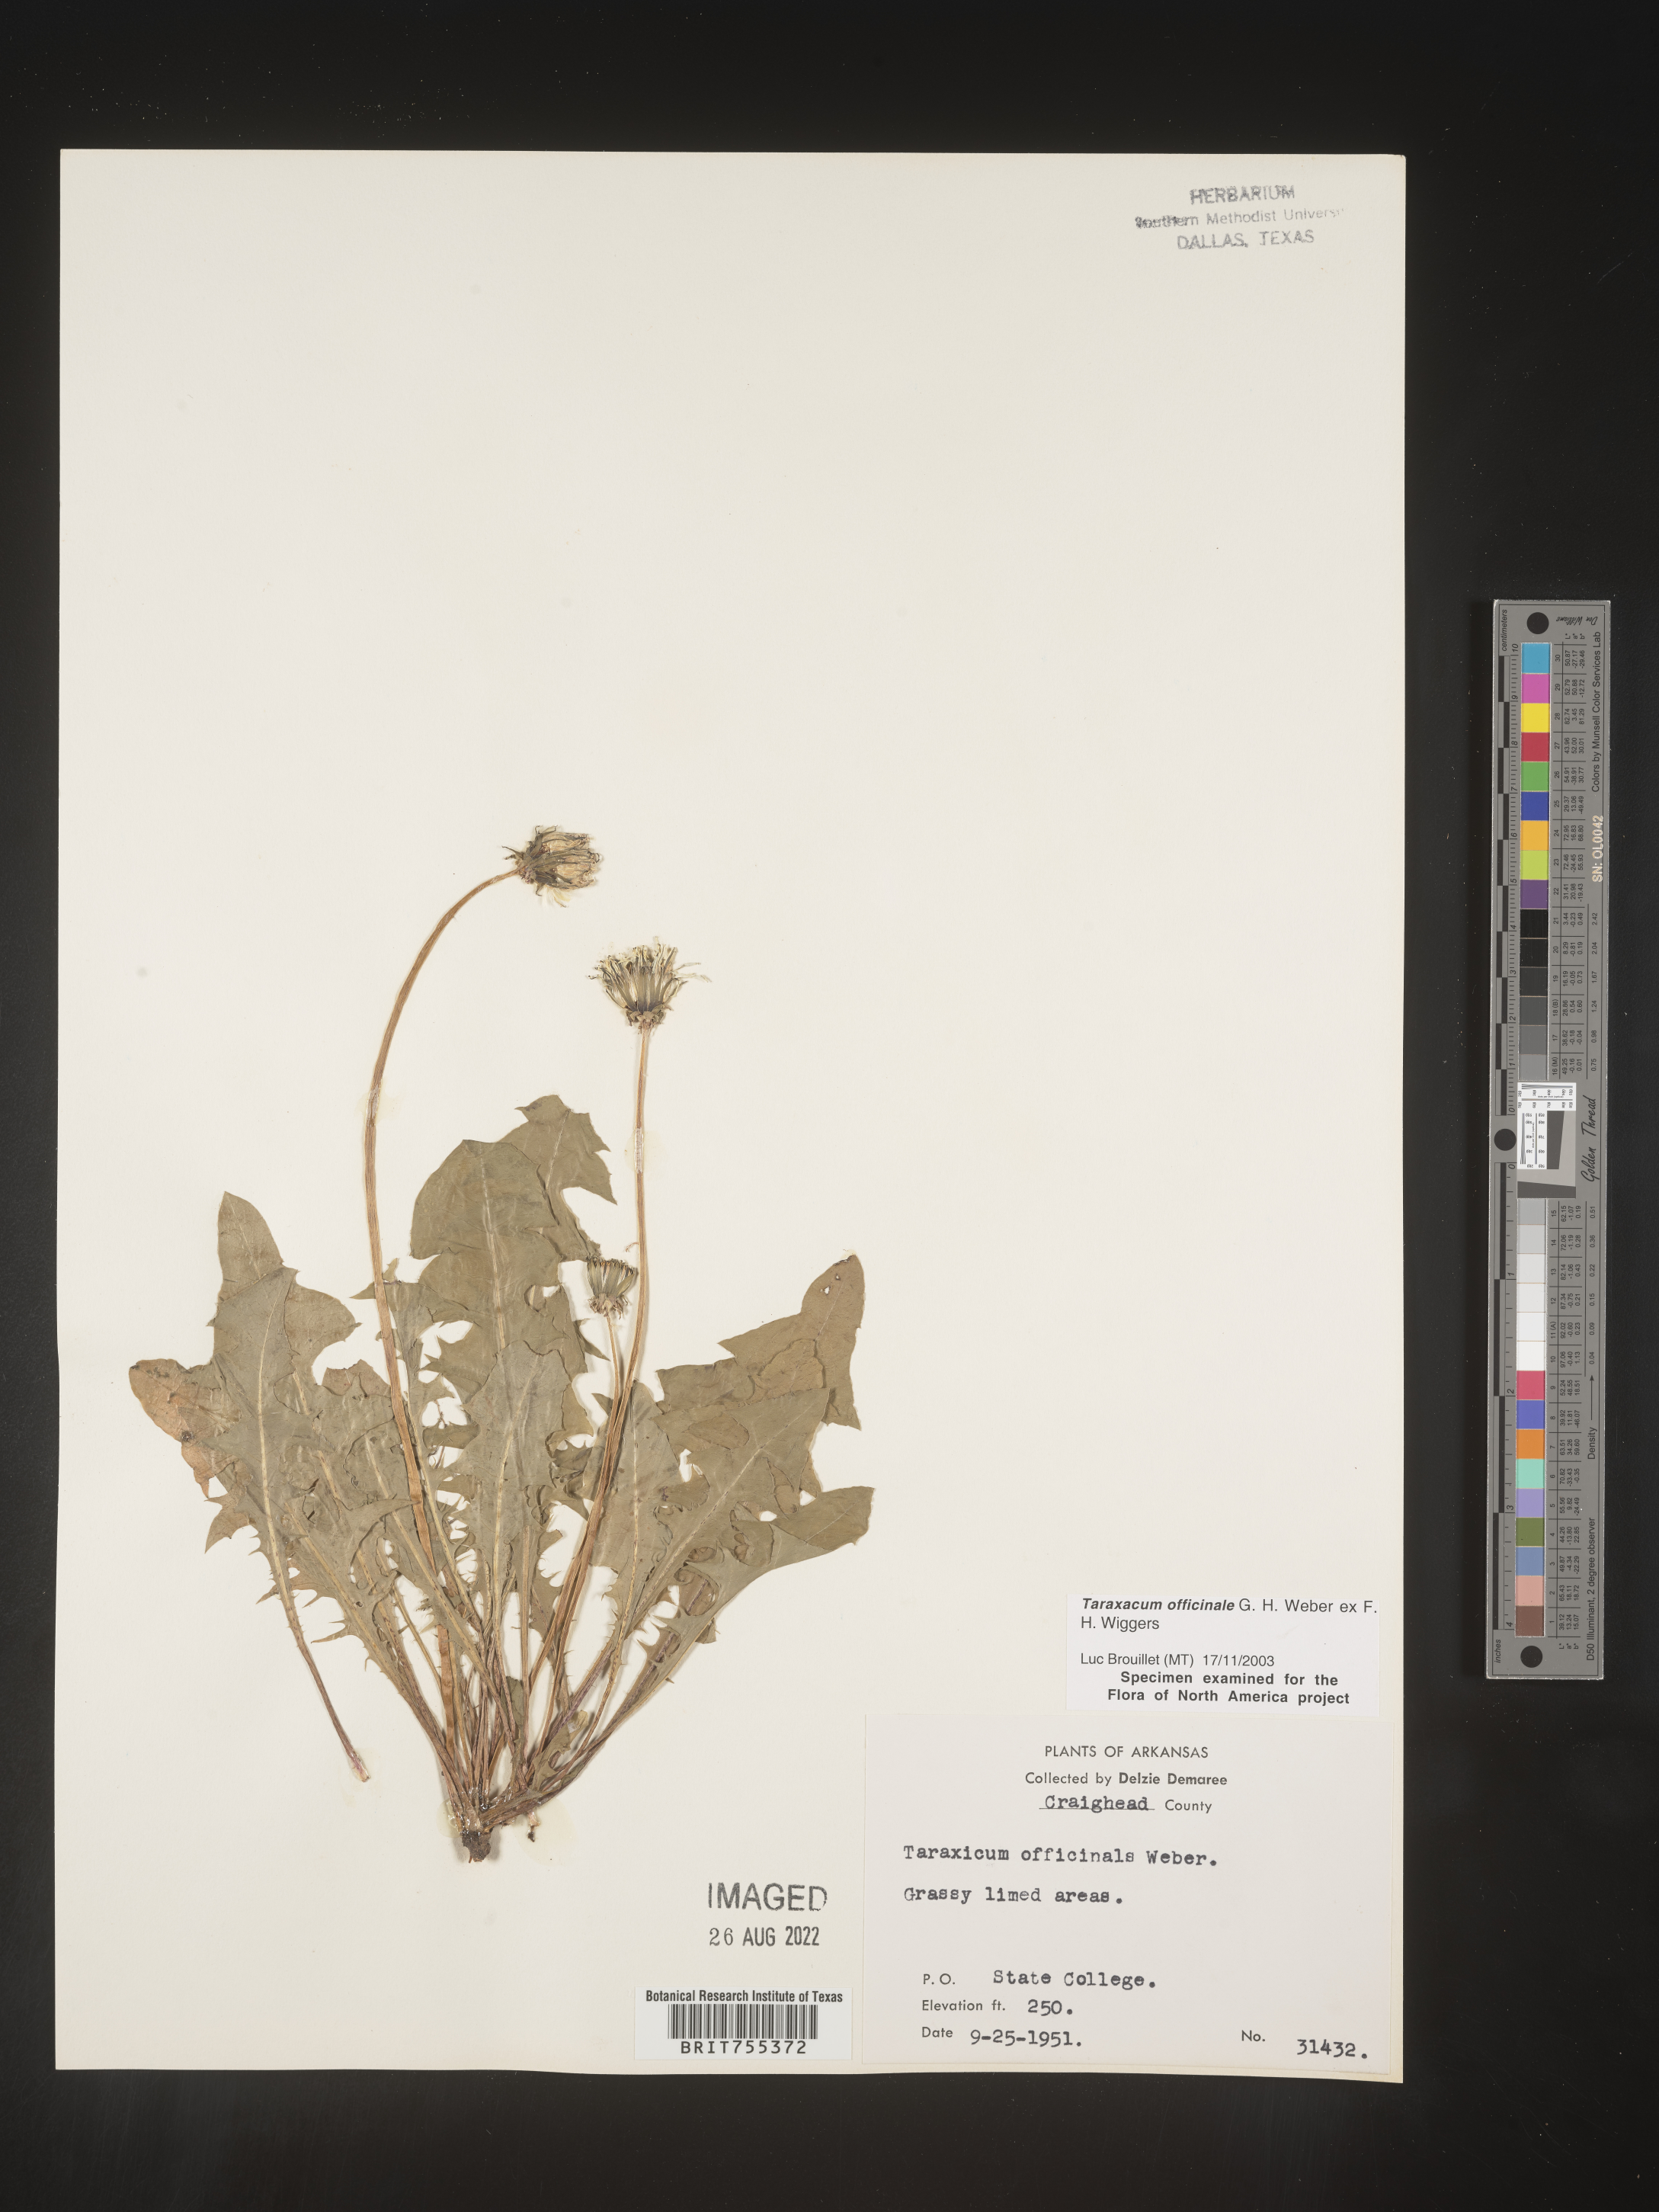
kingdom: Plantae
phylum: Tracheophyta
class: Magnoliopsida
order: Asterales
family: Asteraceae
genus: Taraxacum
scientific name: Taraxacum officinale
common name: Common dandelion
